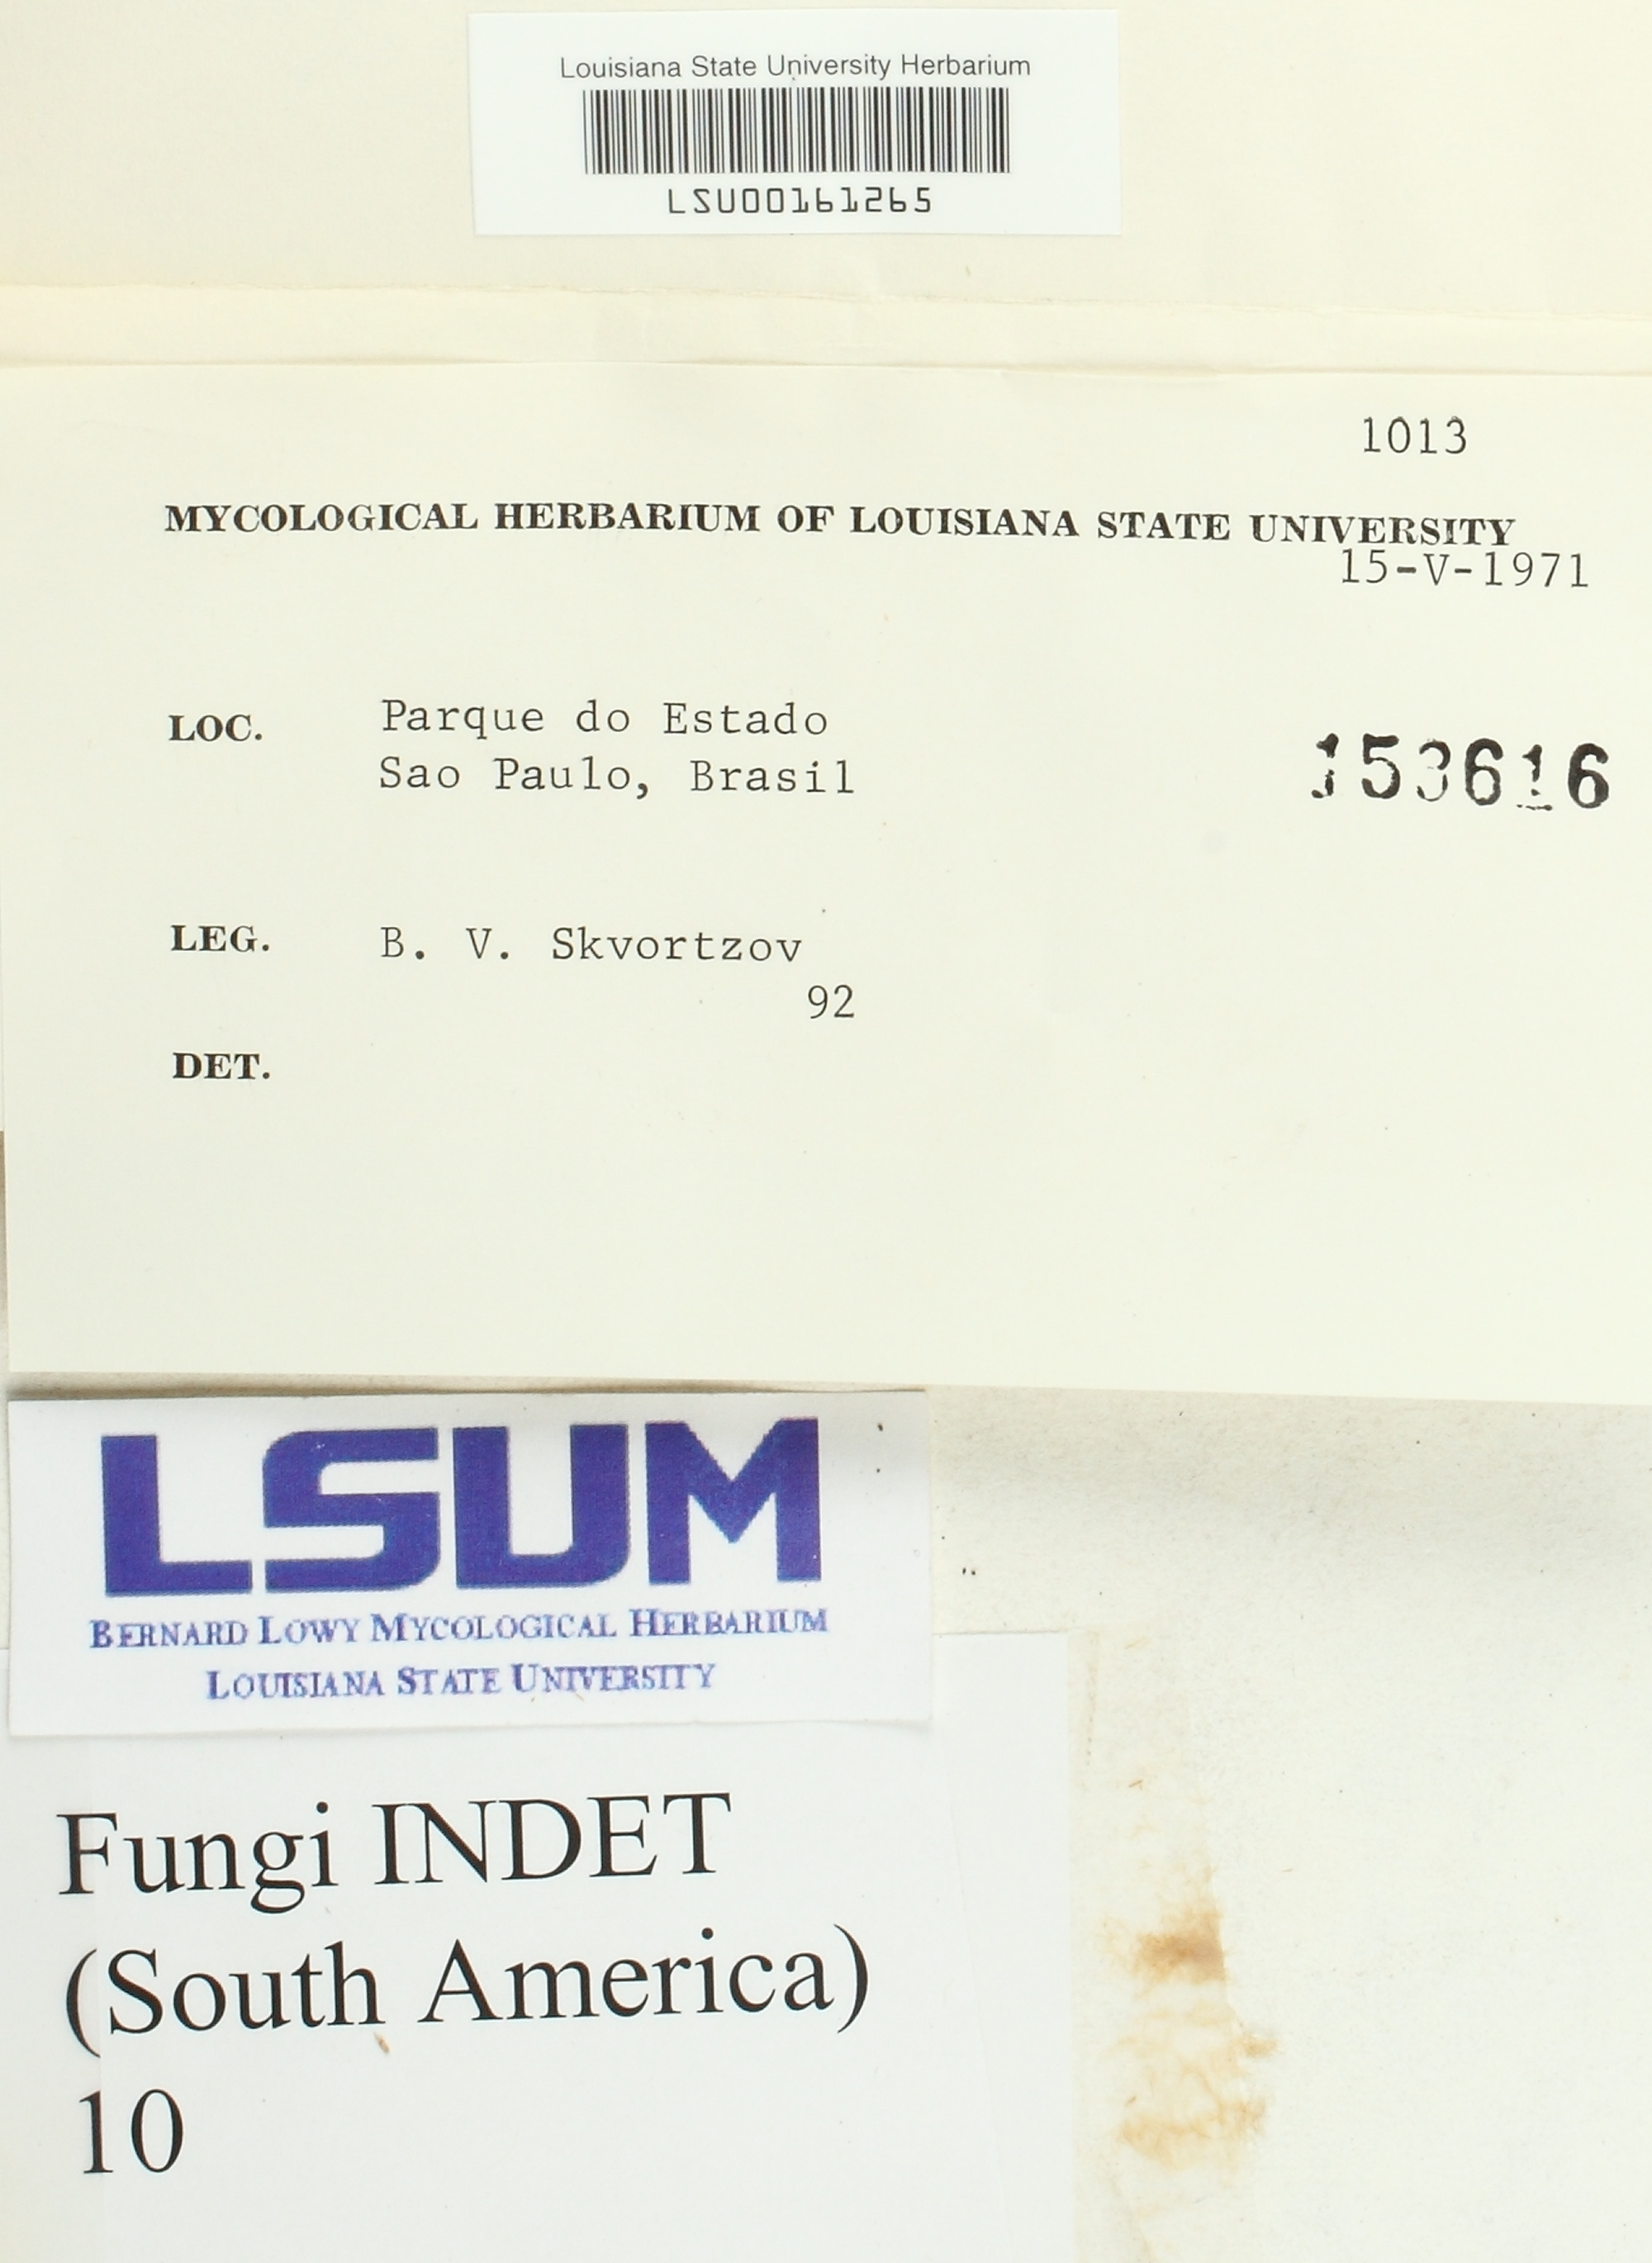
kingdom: Fungi
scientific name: Fungi
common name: Fungi
